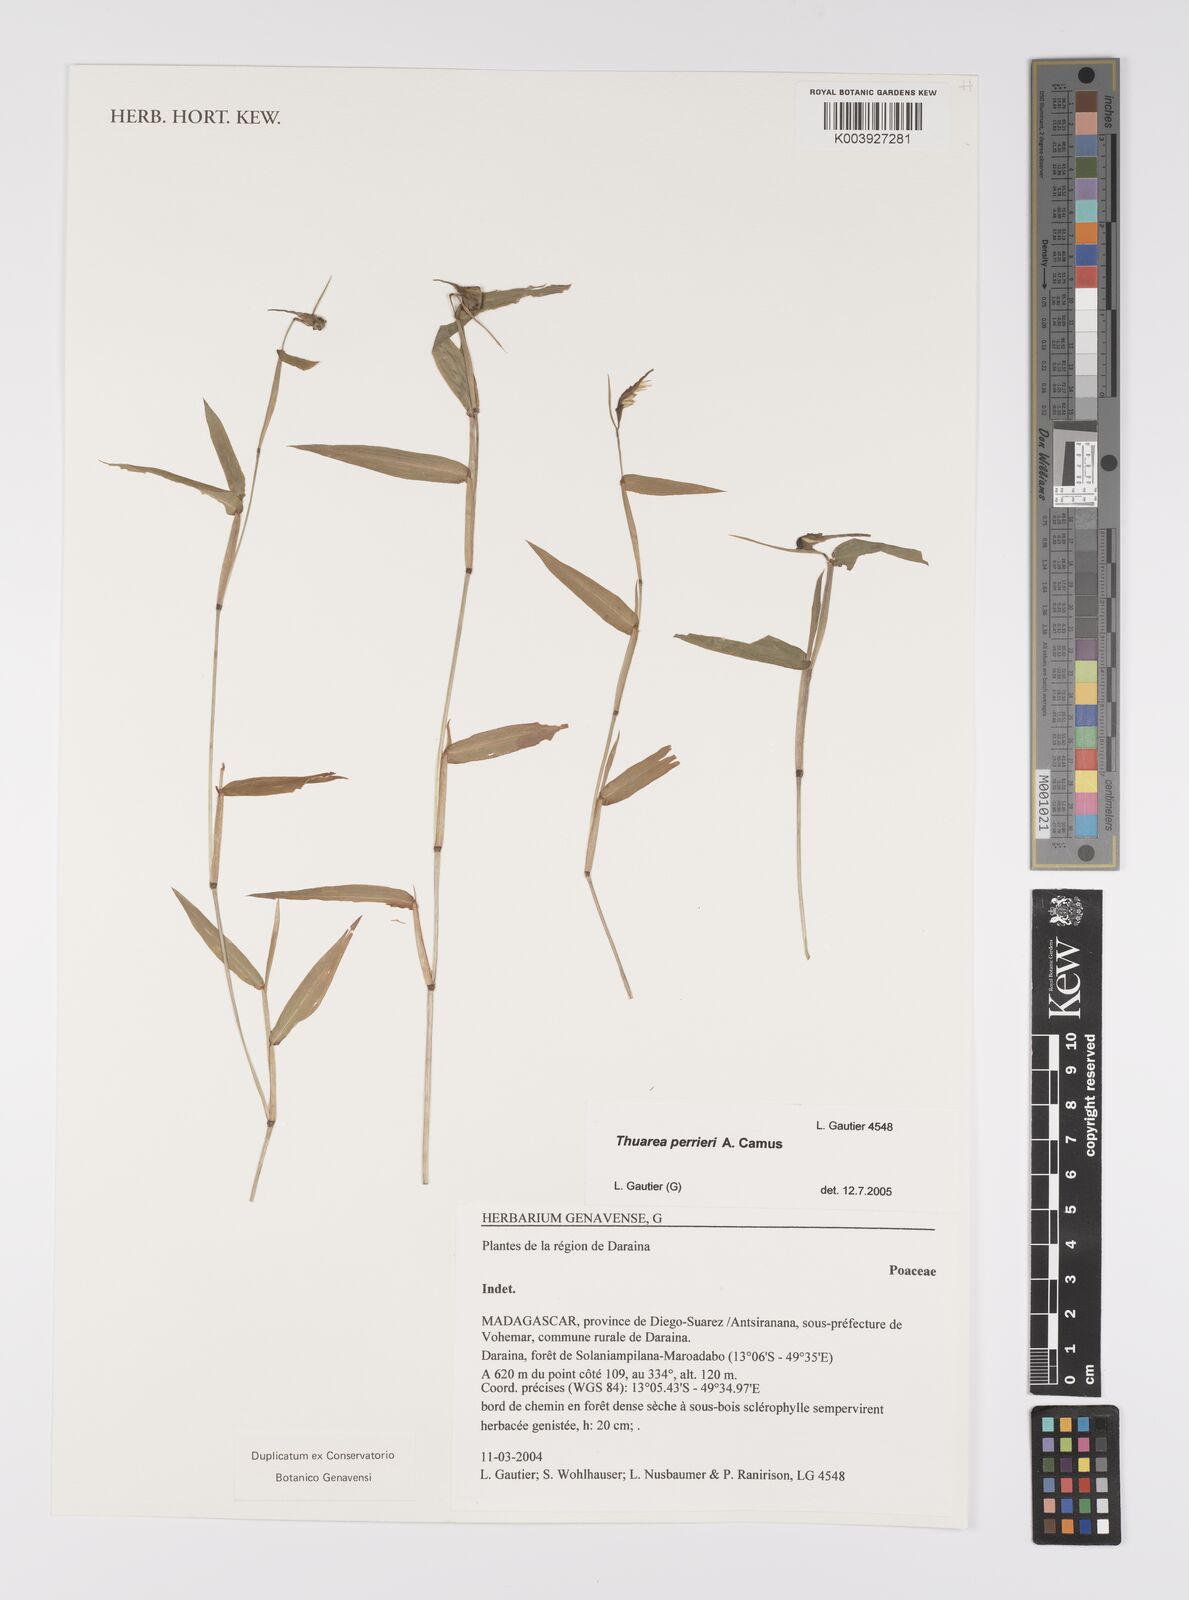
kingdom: Plantae
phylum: Tracheophyta
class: Liliopsida
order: Poales
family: Poaceae
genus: Thuarea
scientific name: Thuarea perrieri
